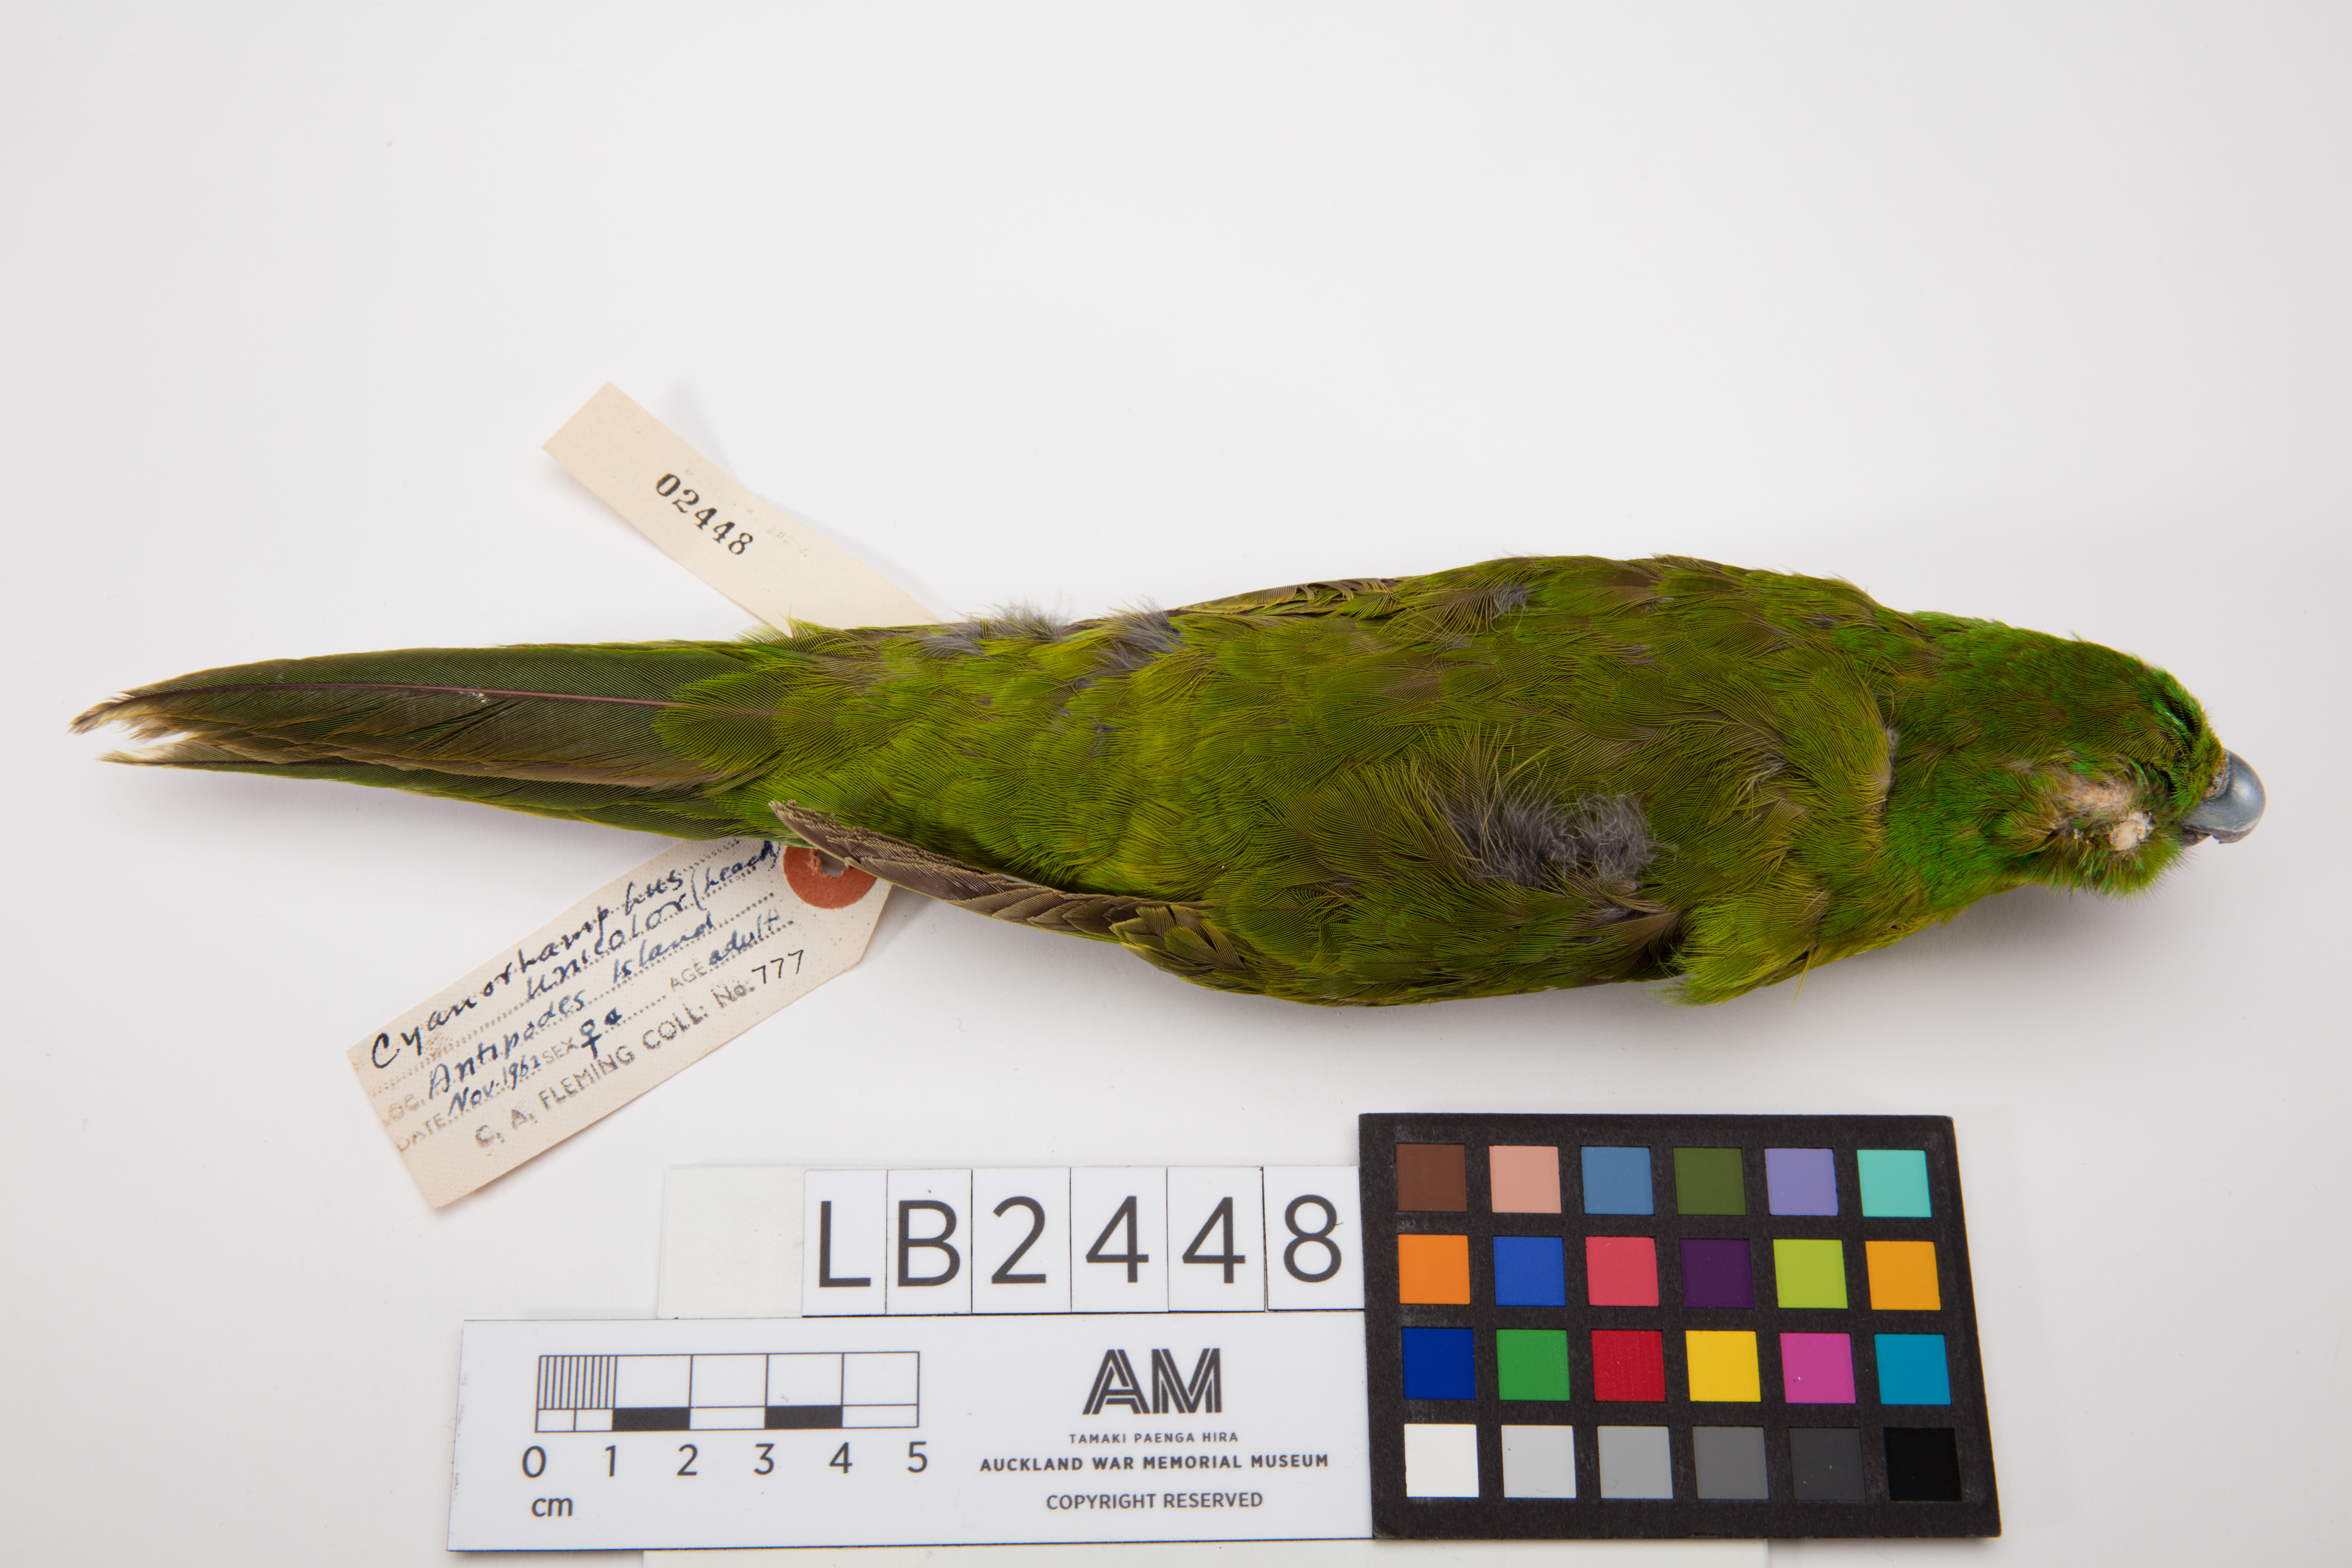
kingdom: Animalia
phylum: Chordata
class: Aves
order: Psittaciformes
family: Psittacidae
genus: Cyanoramphus
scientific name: Cyanoramphus unicolor
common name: Antipodes parakeet
